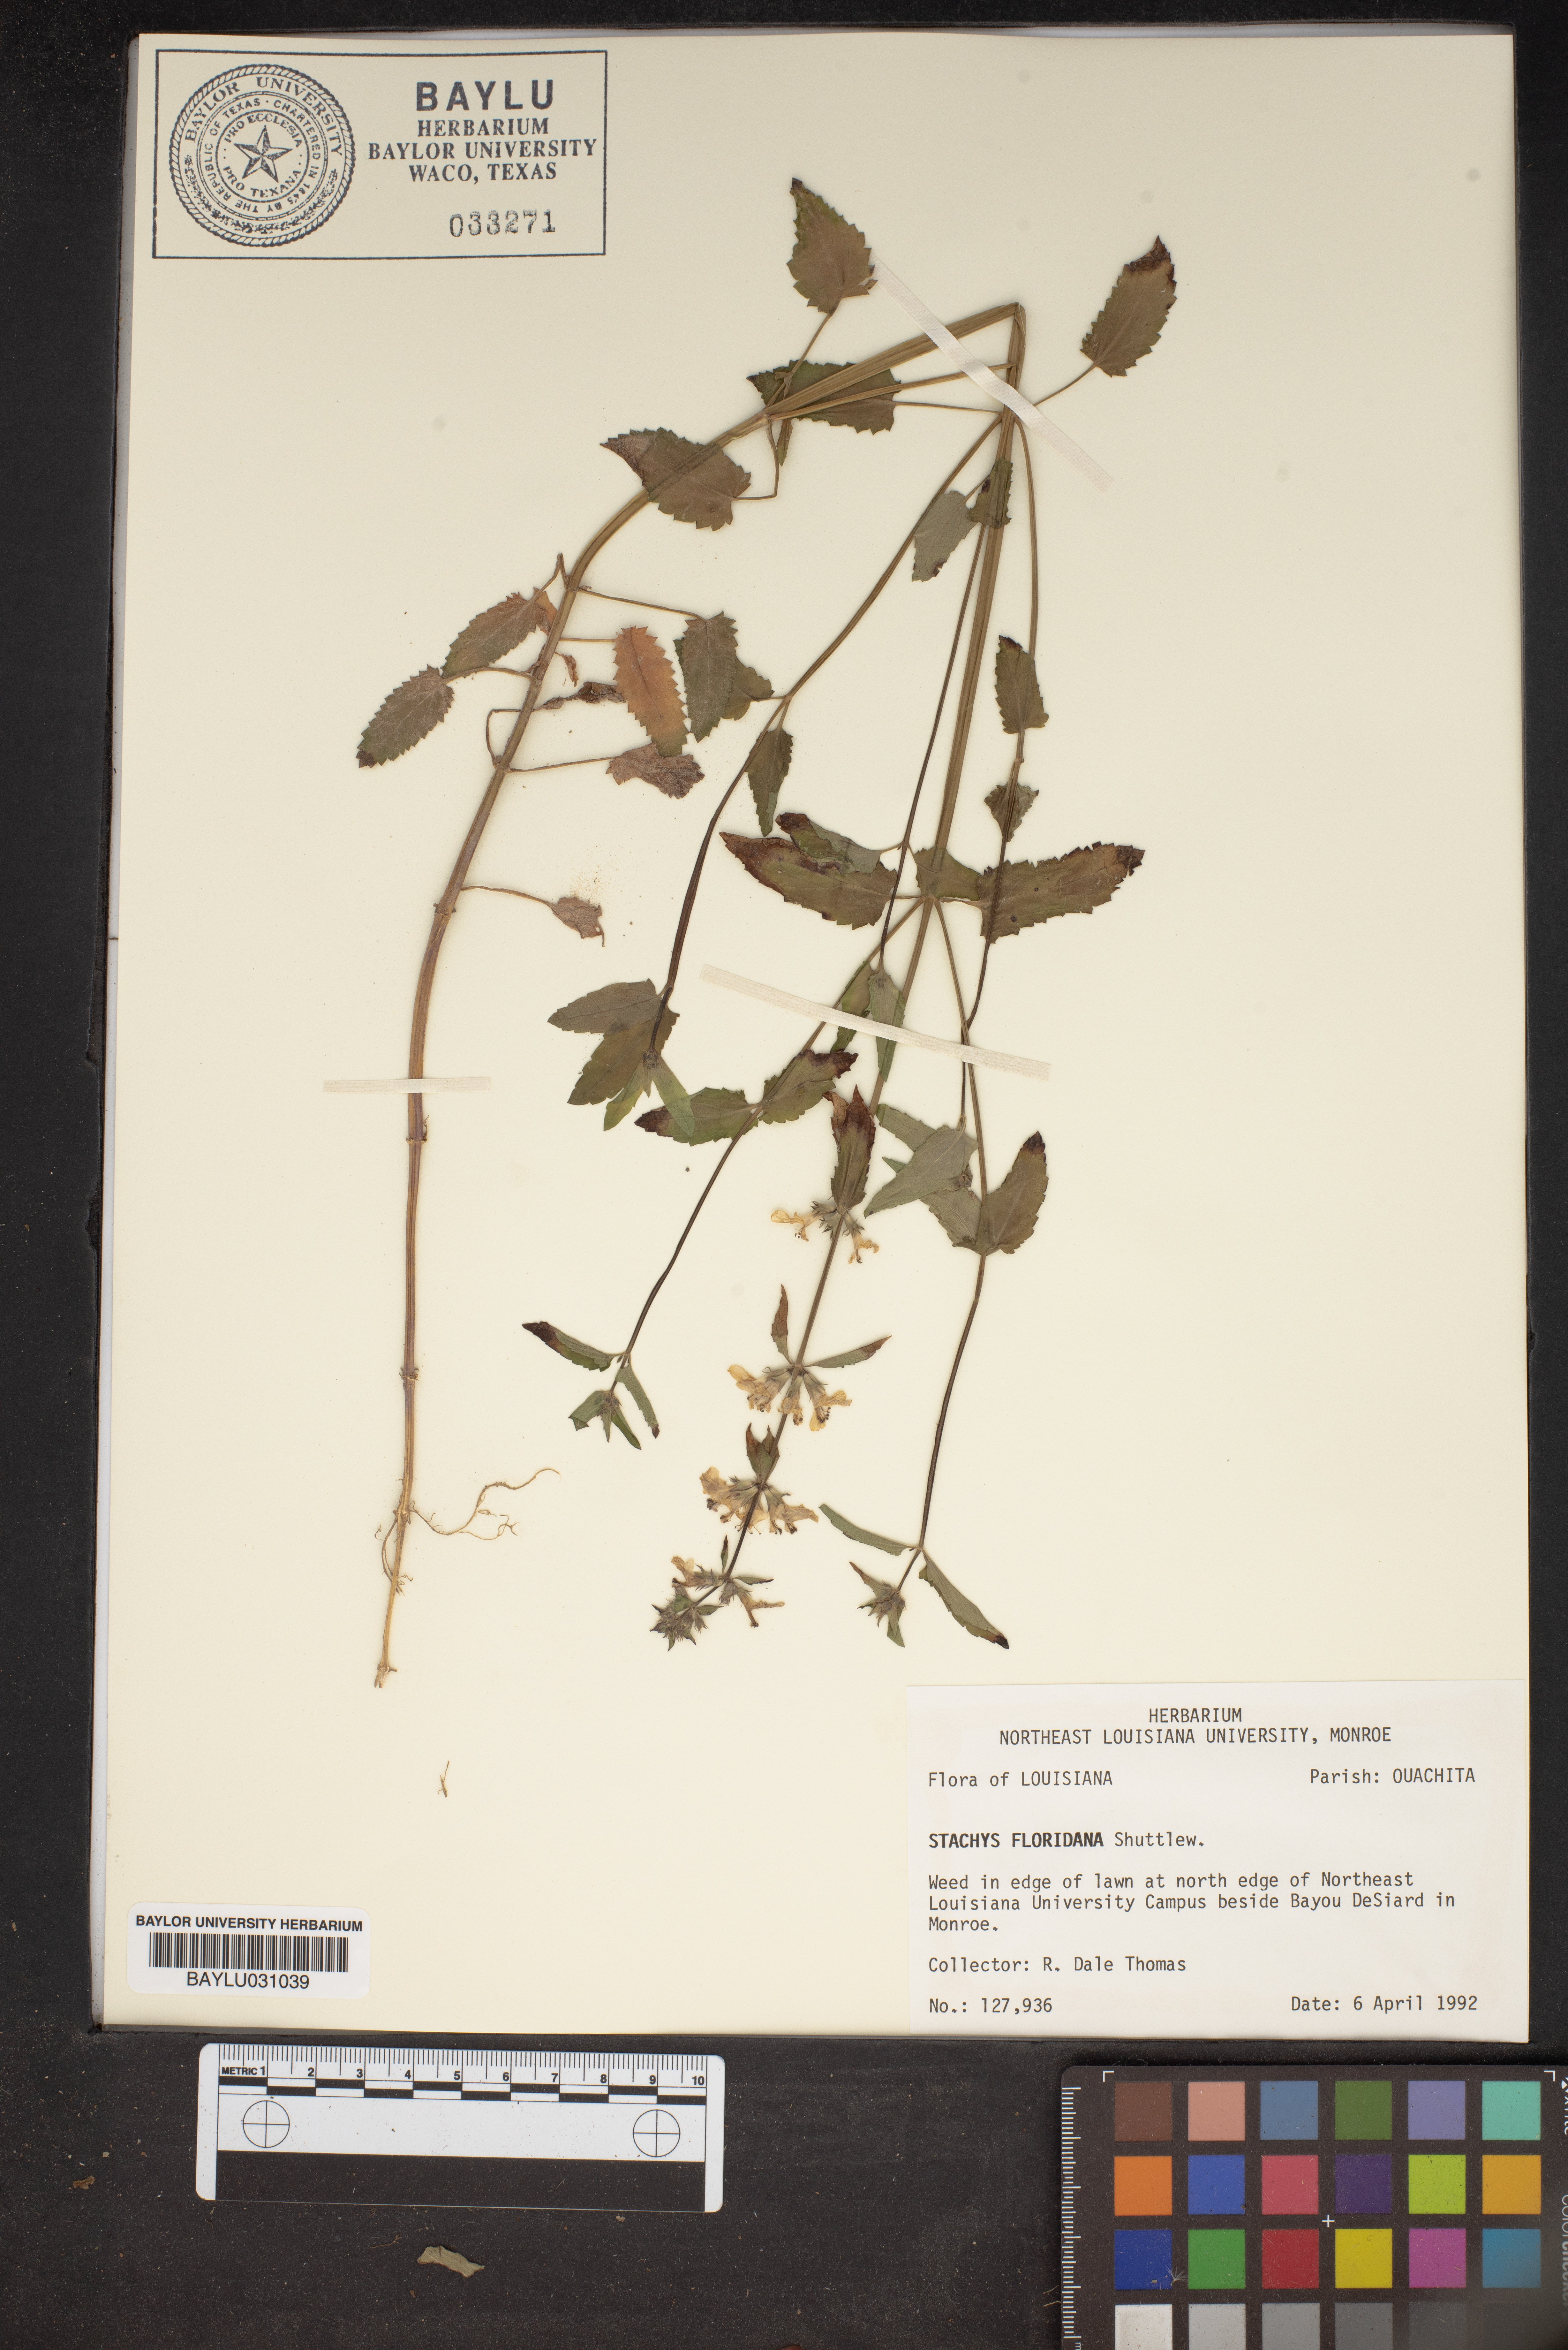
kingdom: Plantae
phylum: Tracheophyta
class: Magnoliopsida
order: Lamiales
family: Lamiaceae
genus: Stachys
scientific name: Stachys floridana
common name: Florida betony
